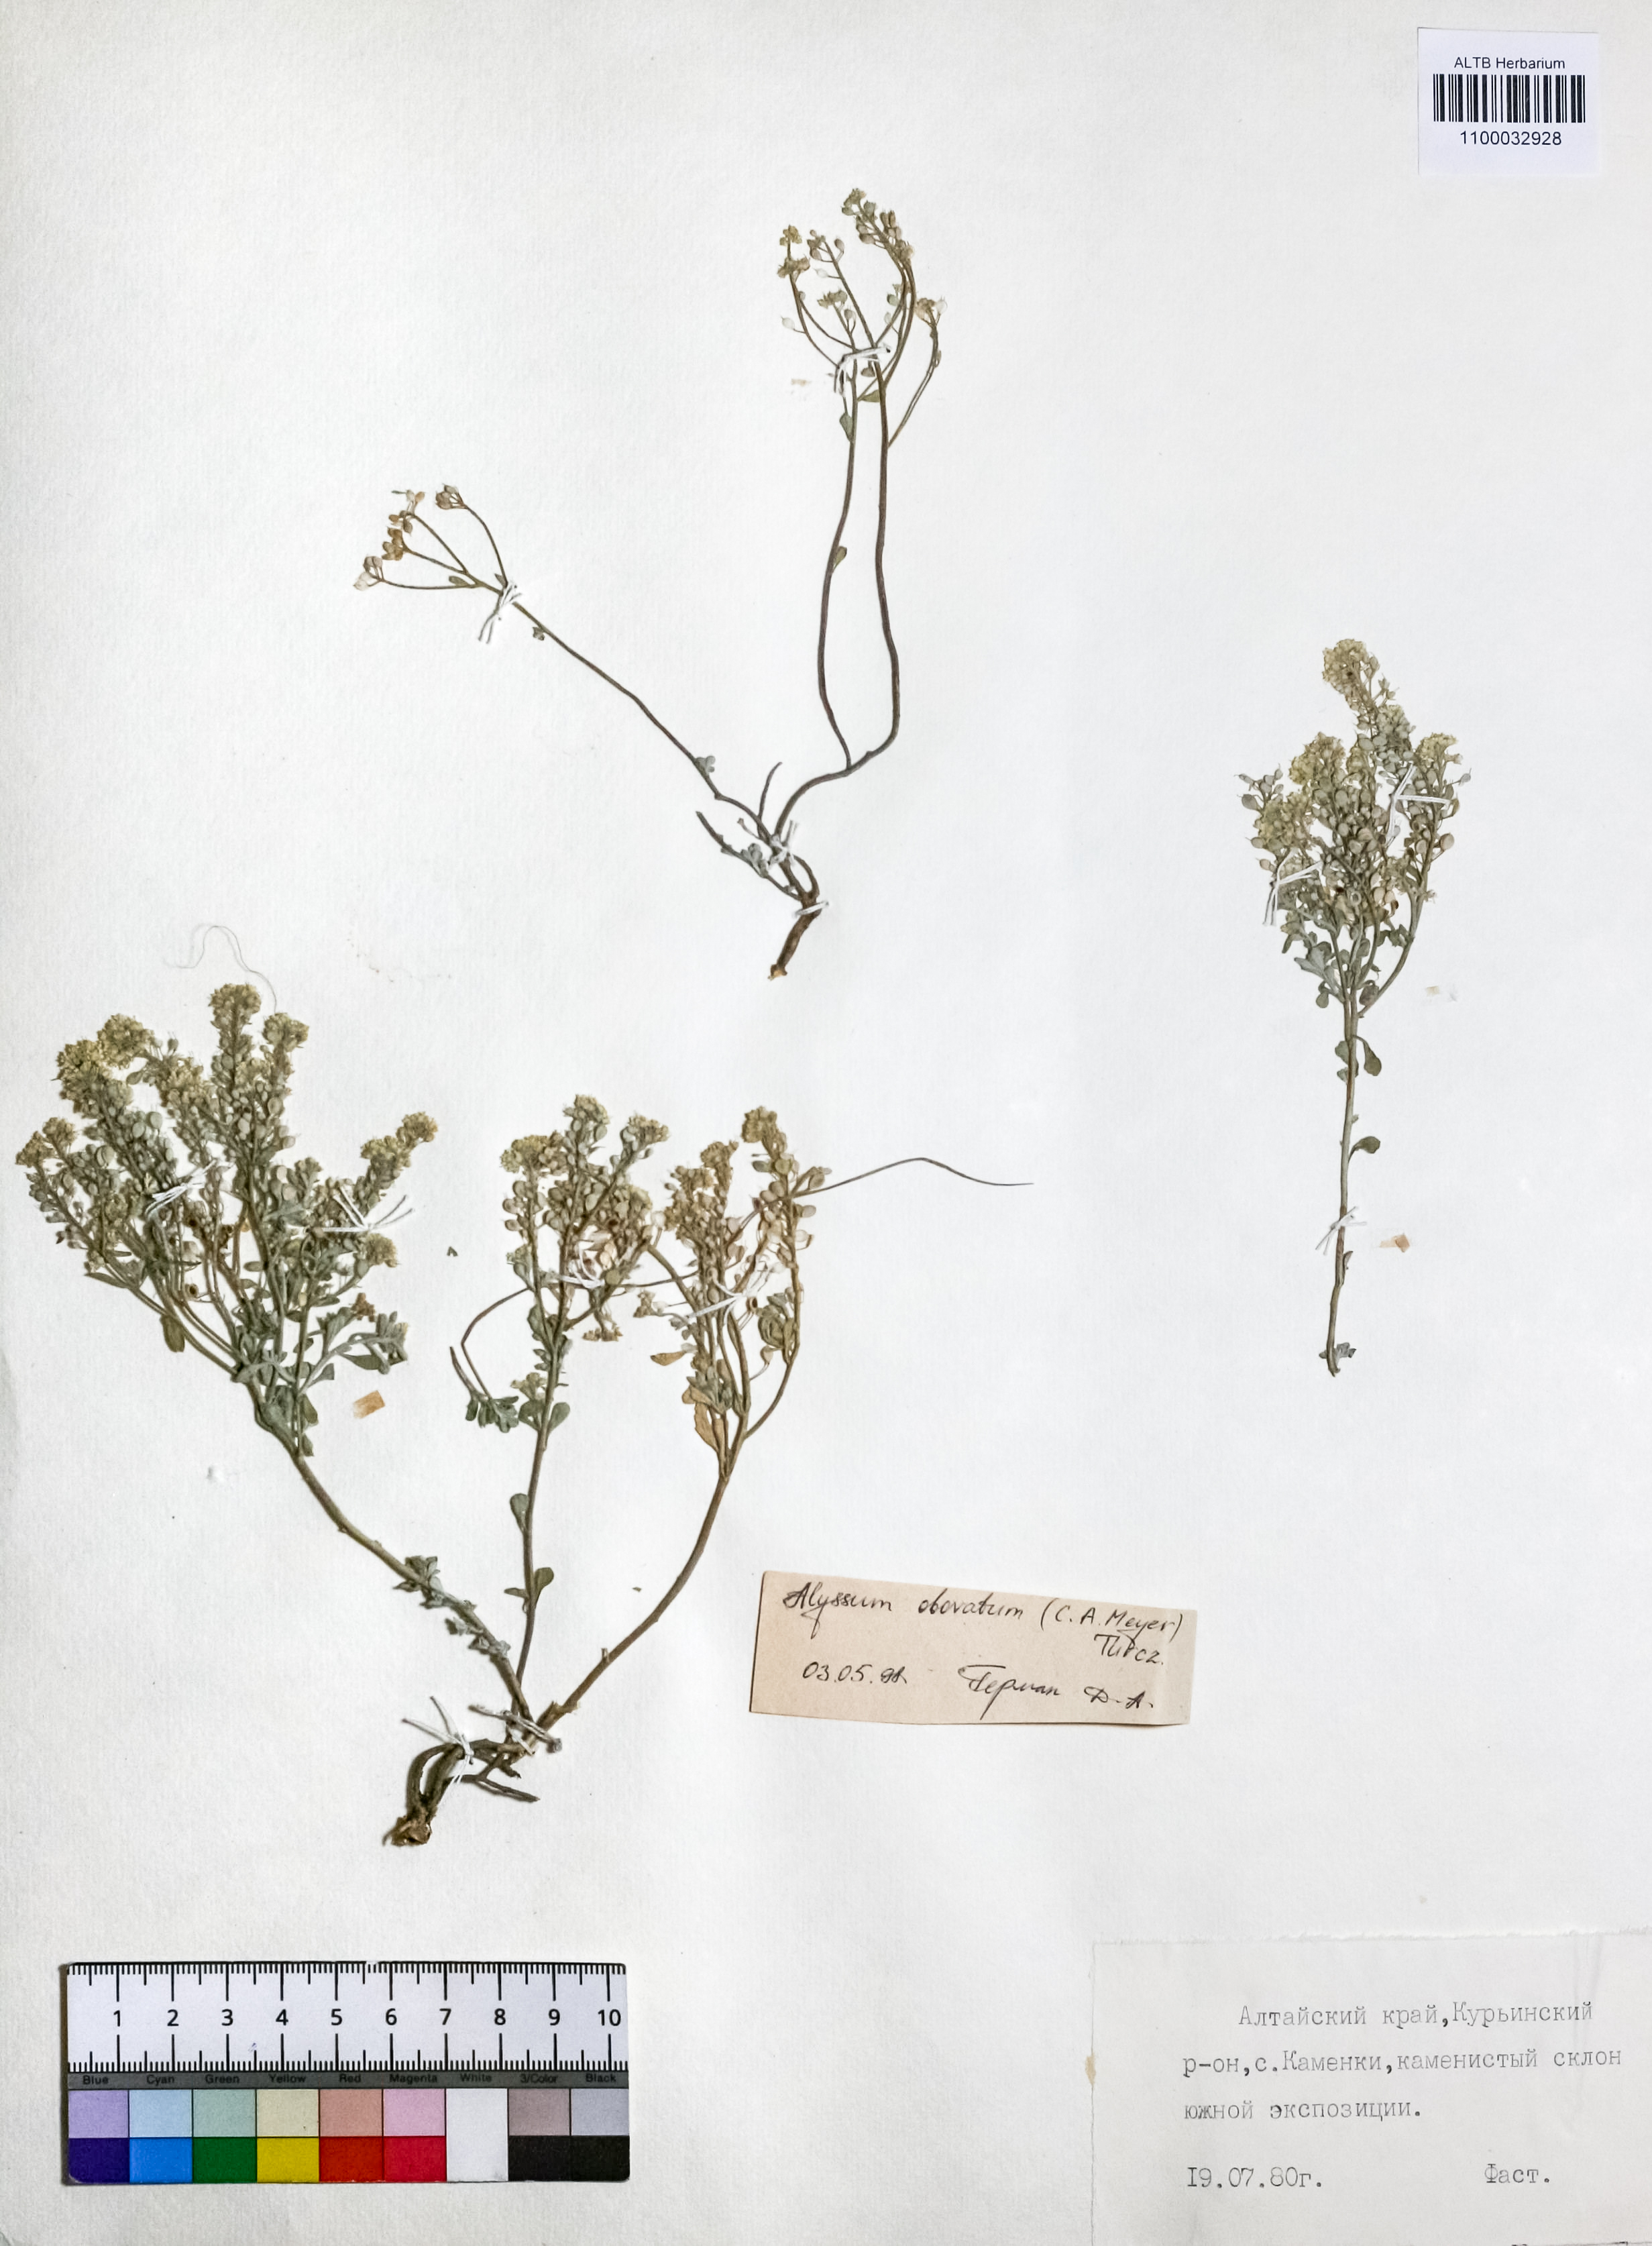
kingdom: Plantae
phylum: Tracheophyta
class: Magnoliopsida
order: Brassicales
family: Brassicaceae
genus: Odontarrhena
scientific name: Odontarrhena obovata
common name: American alyssum
